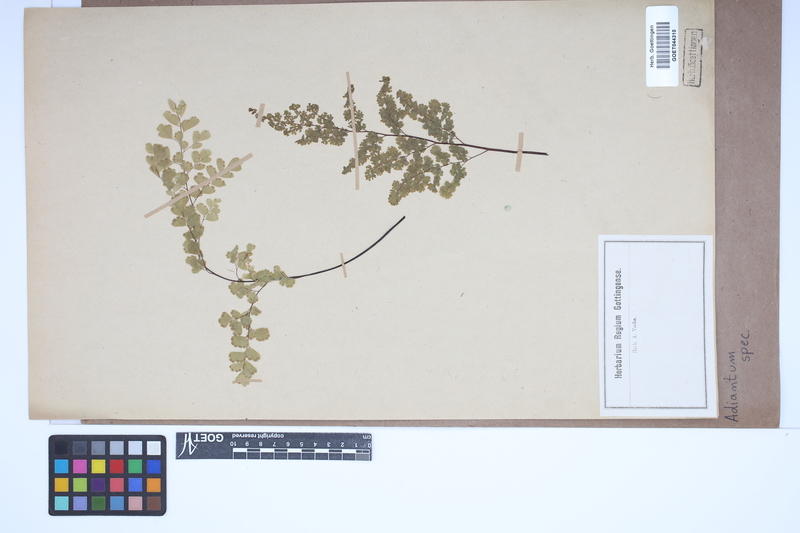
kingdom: Plantae
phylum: Tracheophyta
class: Polypodiopsida
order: Polypodiales
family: Pteridaceae
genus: Adiantum
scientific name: Adiantum
